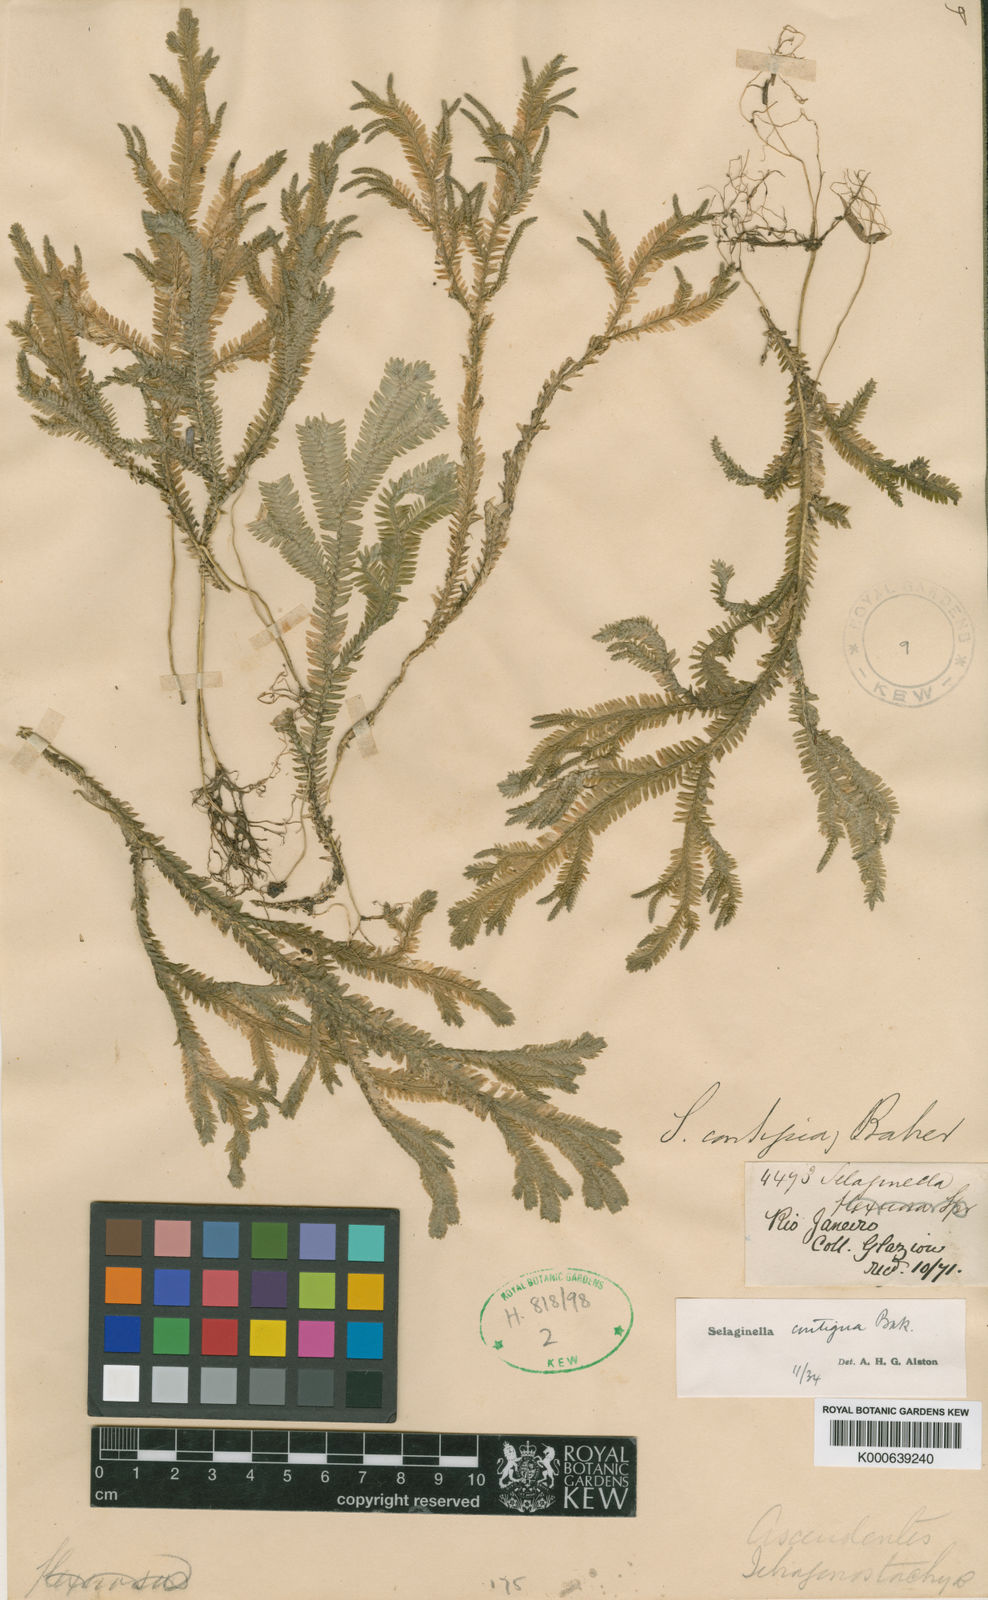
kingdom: Plantae
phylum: Tracheophyta
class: Lycopodiopsida
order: Selaginellales
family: Selaginellaceae
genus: Selaginella
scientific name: Selaginella contigua
